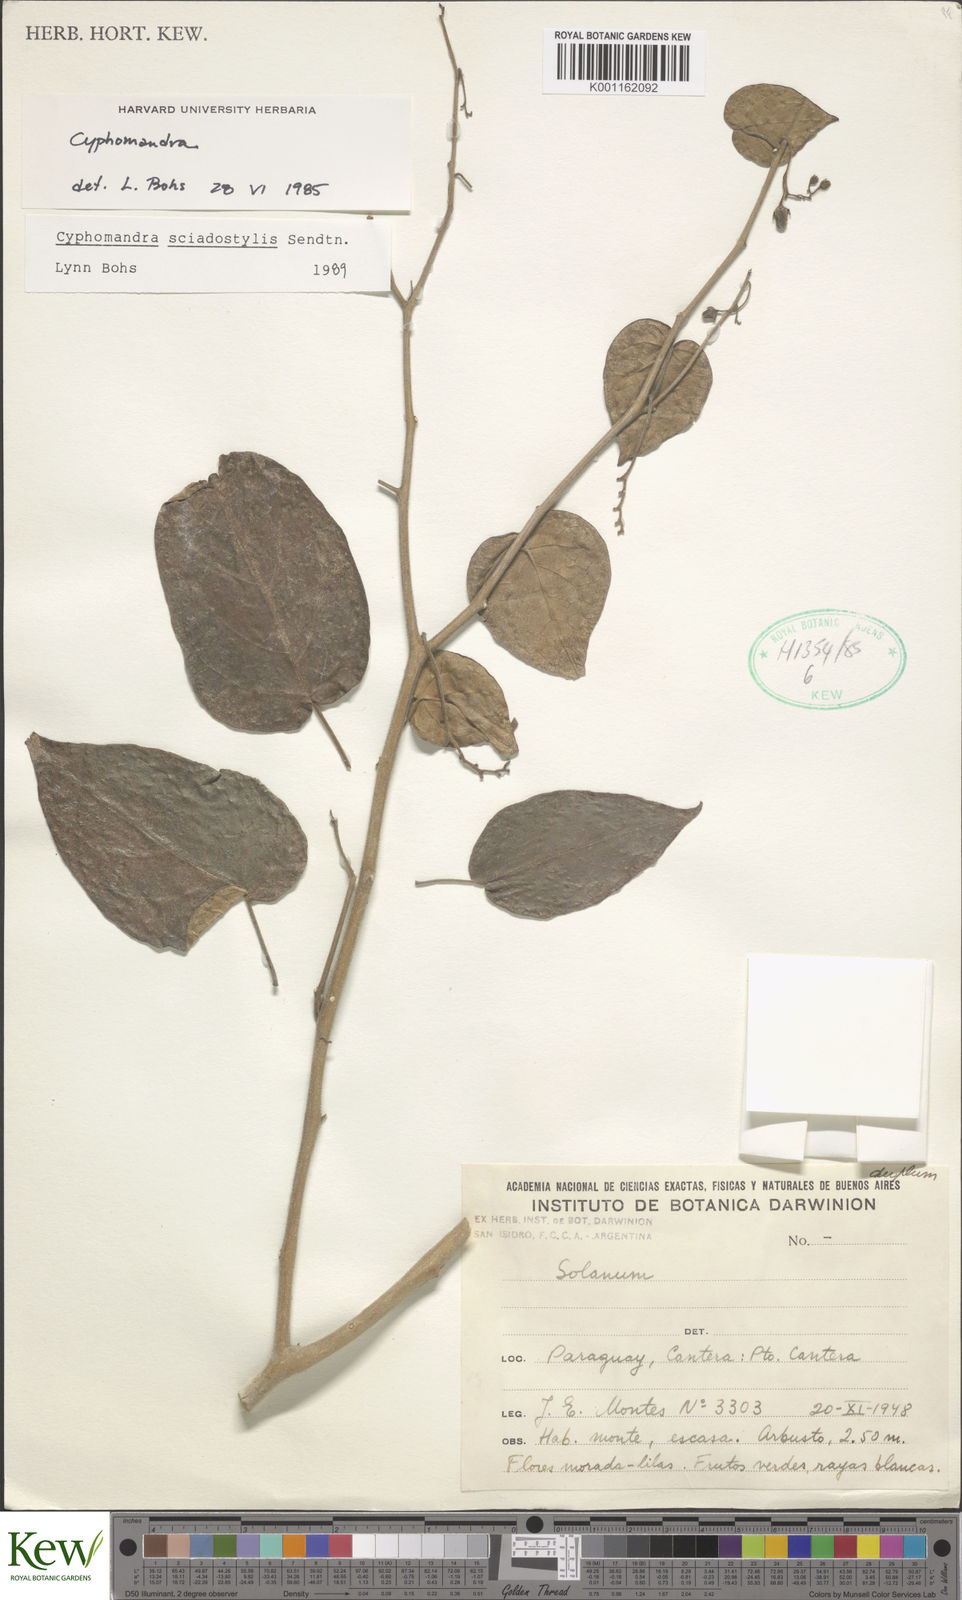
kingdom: Plantae
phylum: Tracheophyta
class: Magnoliopsida
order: Solanales
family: Solanaceae
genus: Solanum
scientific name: Solanum sciadostylis
